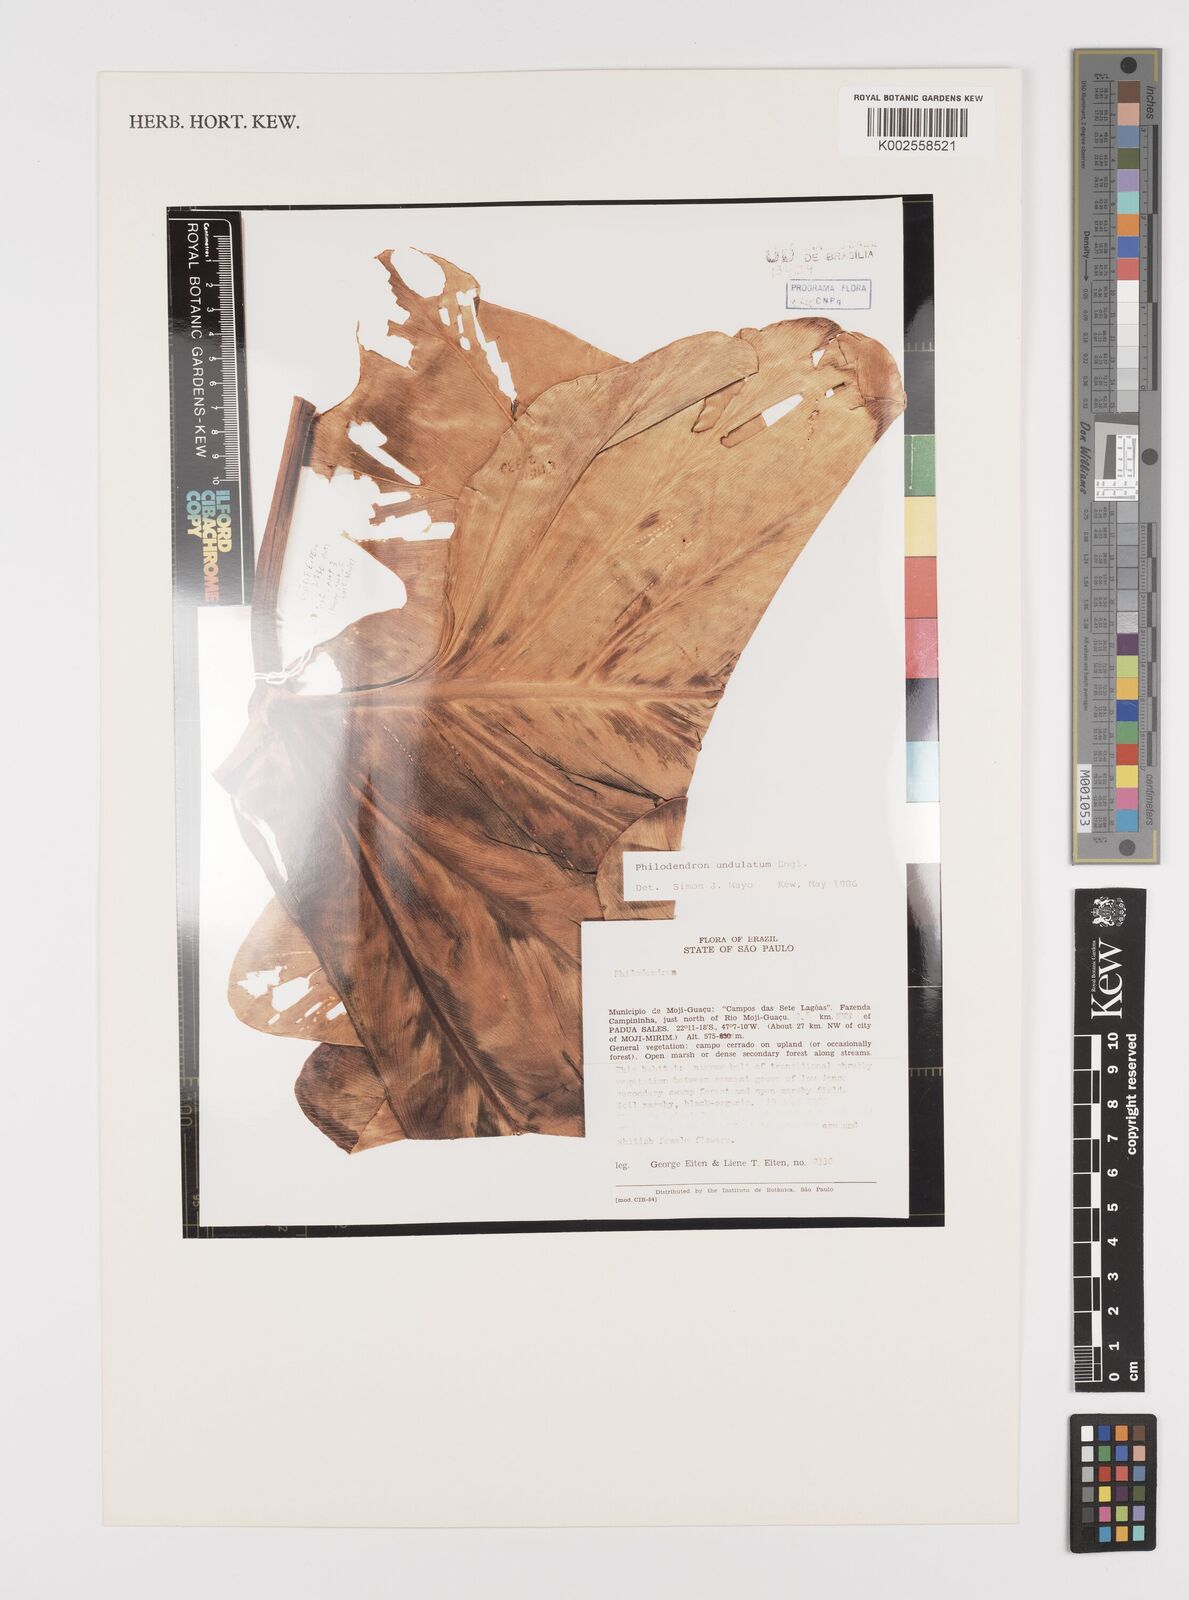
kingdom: Plantae
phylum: Tracheophyta
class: Liliopsida
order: Alismatales
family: Araceae
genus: Thaumatophyllum
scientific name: Thaumatophyllum undulatum
